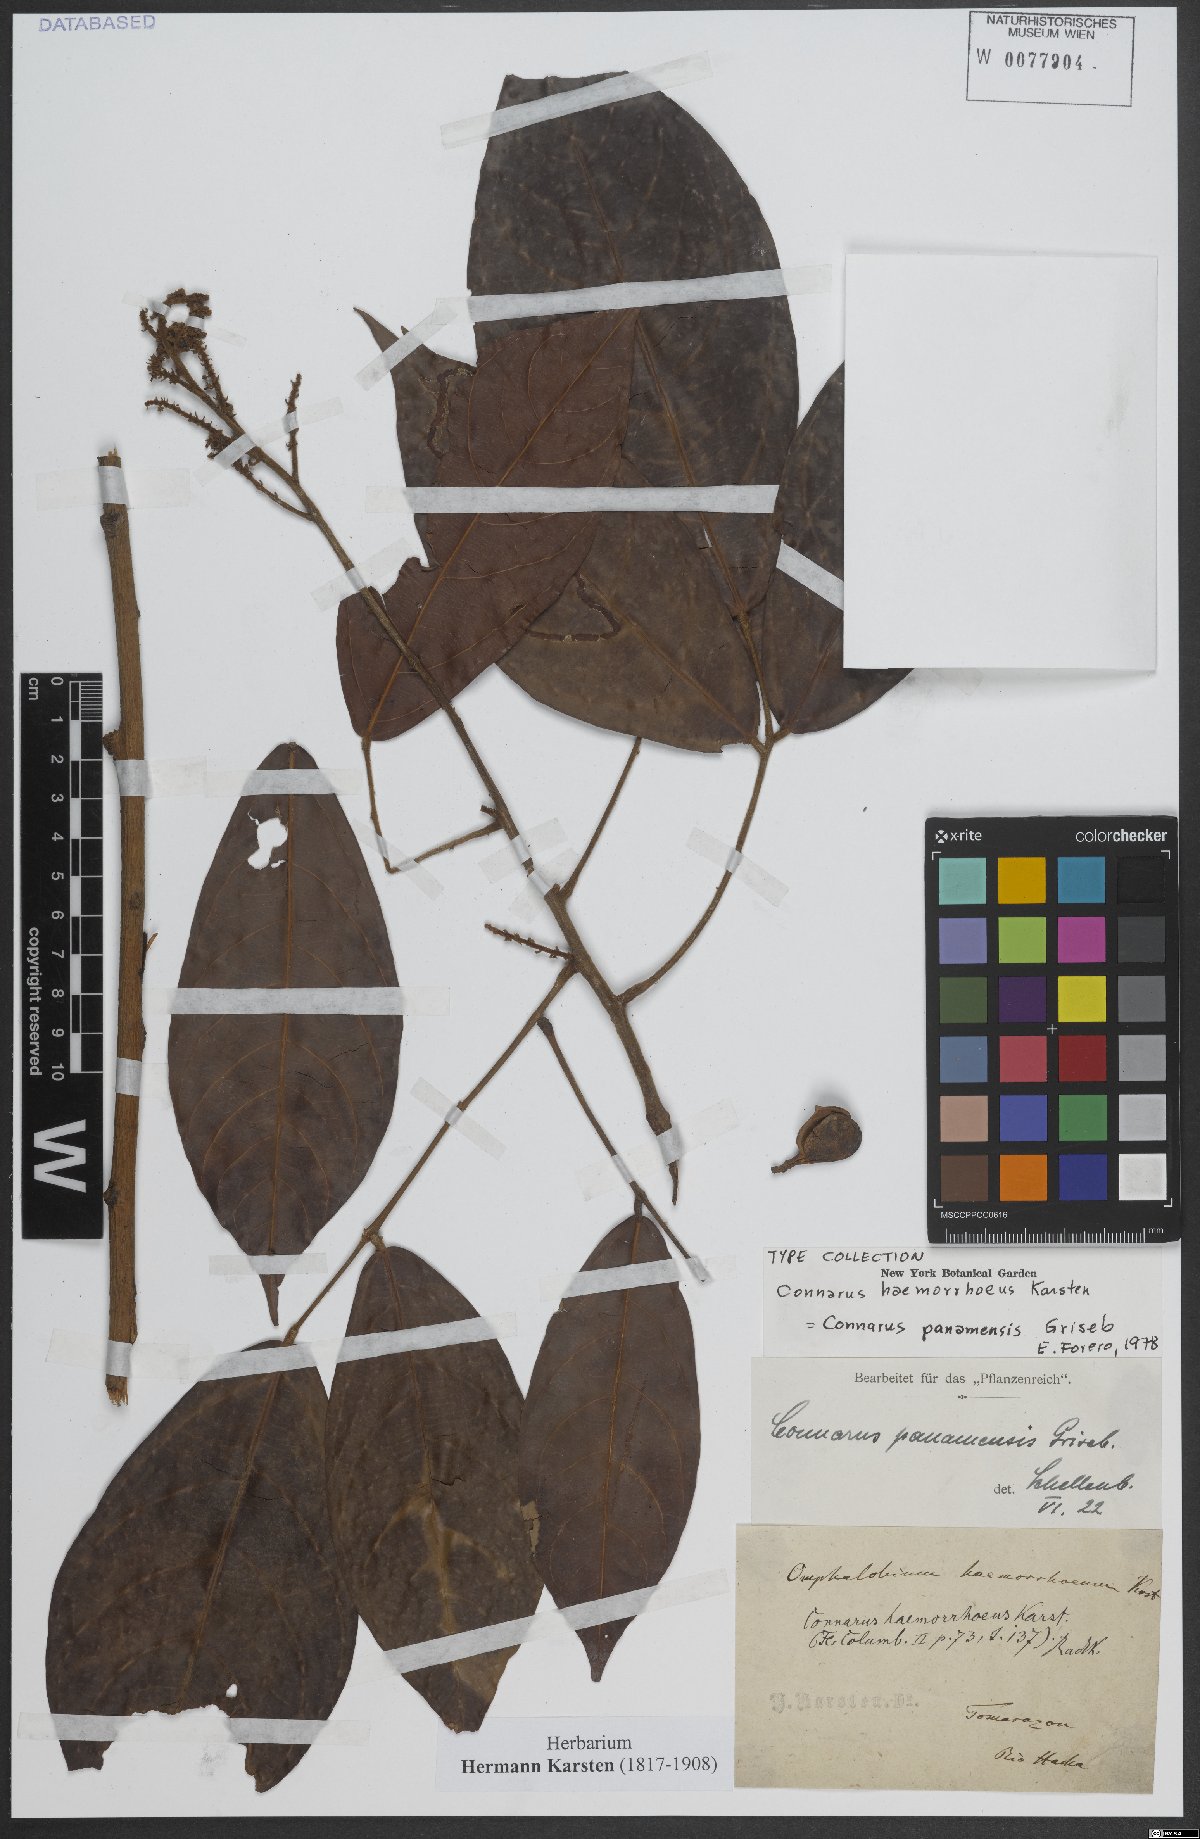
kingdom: Plantae
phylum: Tracheophyta
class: Magnoliopsida
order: Oxalidales
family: Connaraceae
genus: Connarus
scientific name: Connarus panamensis
